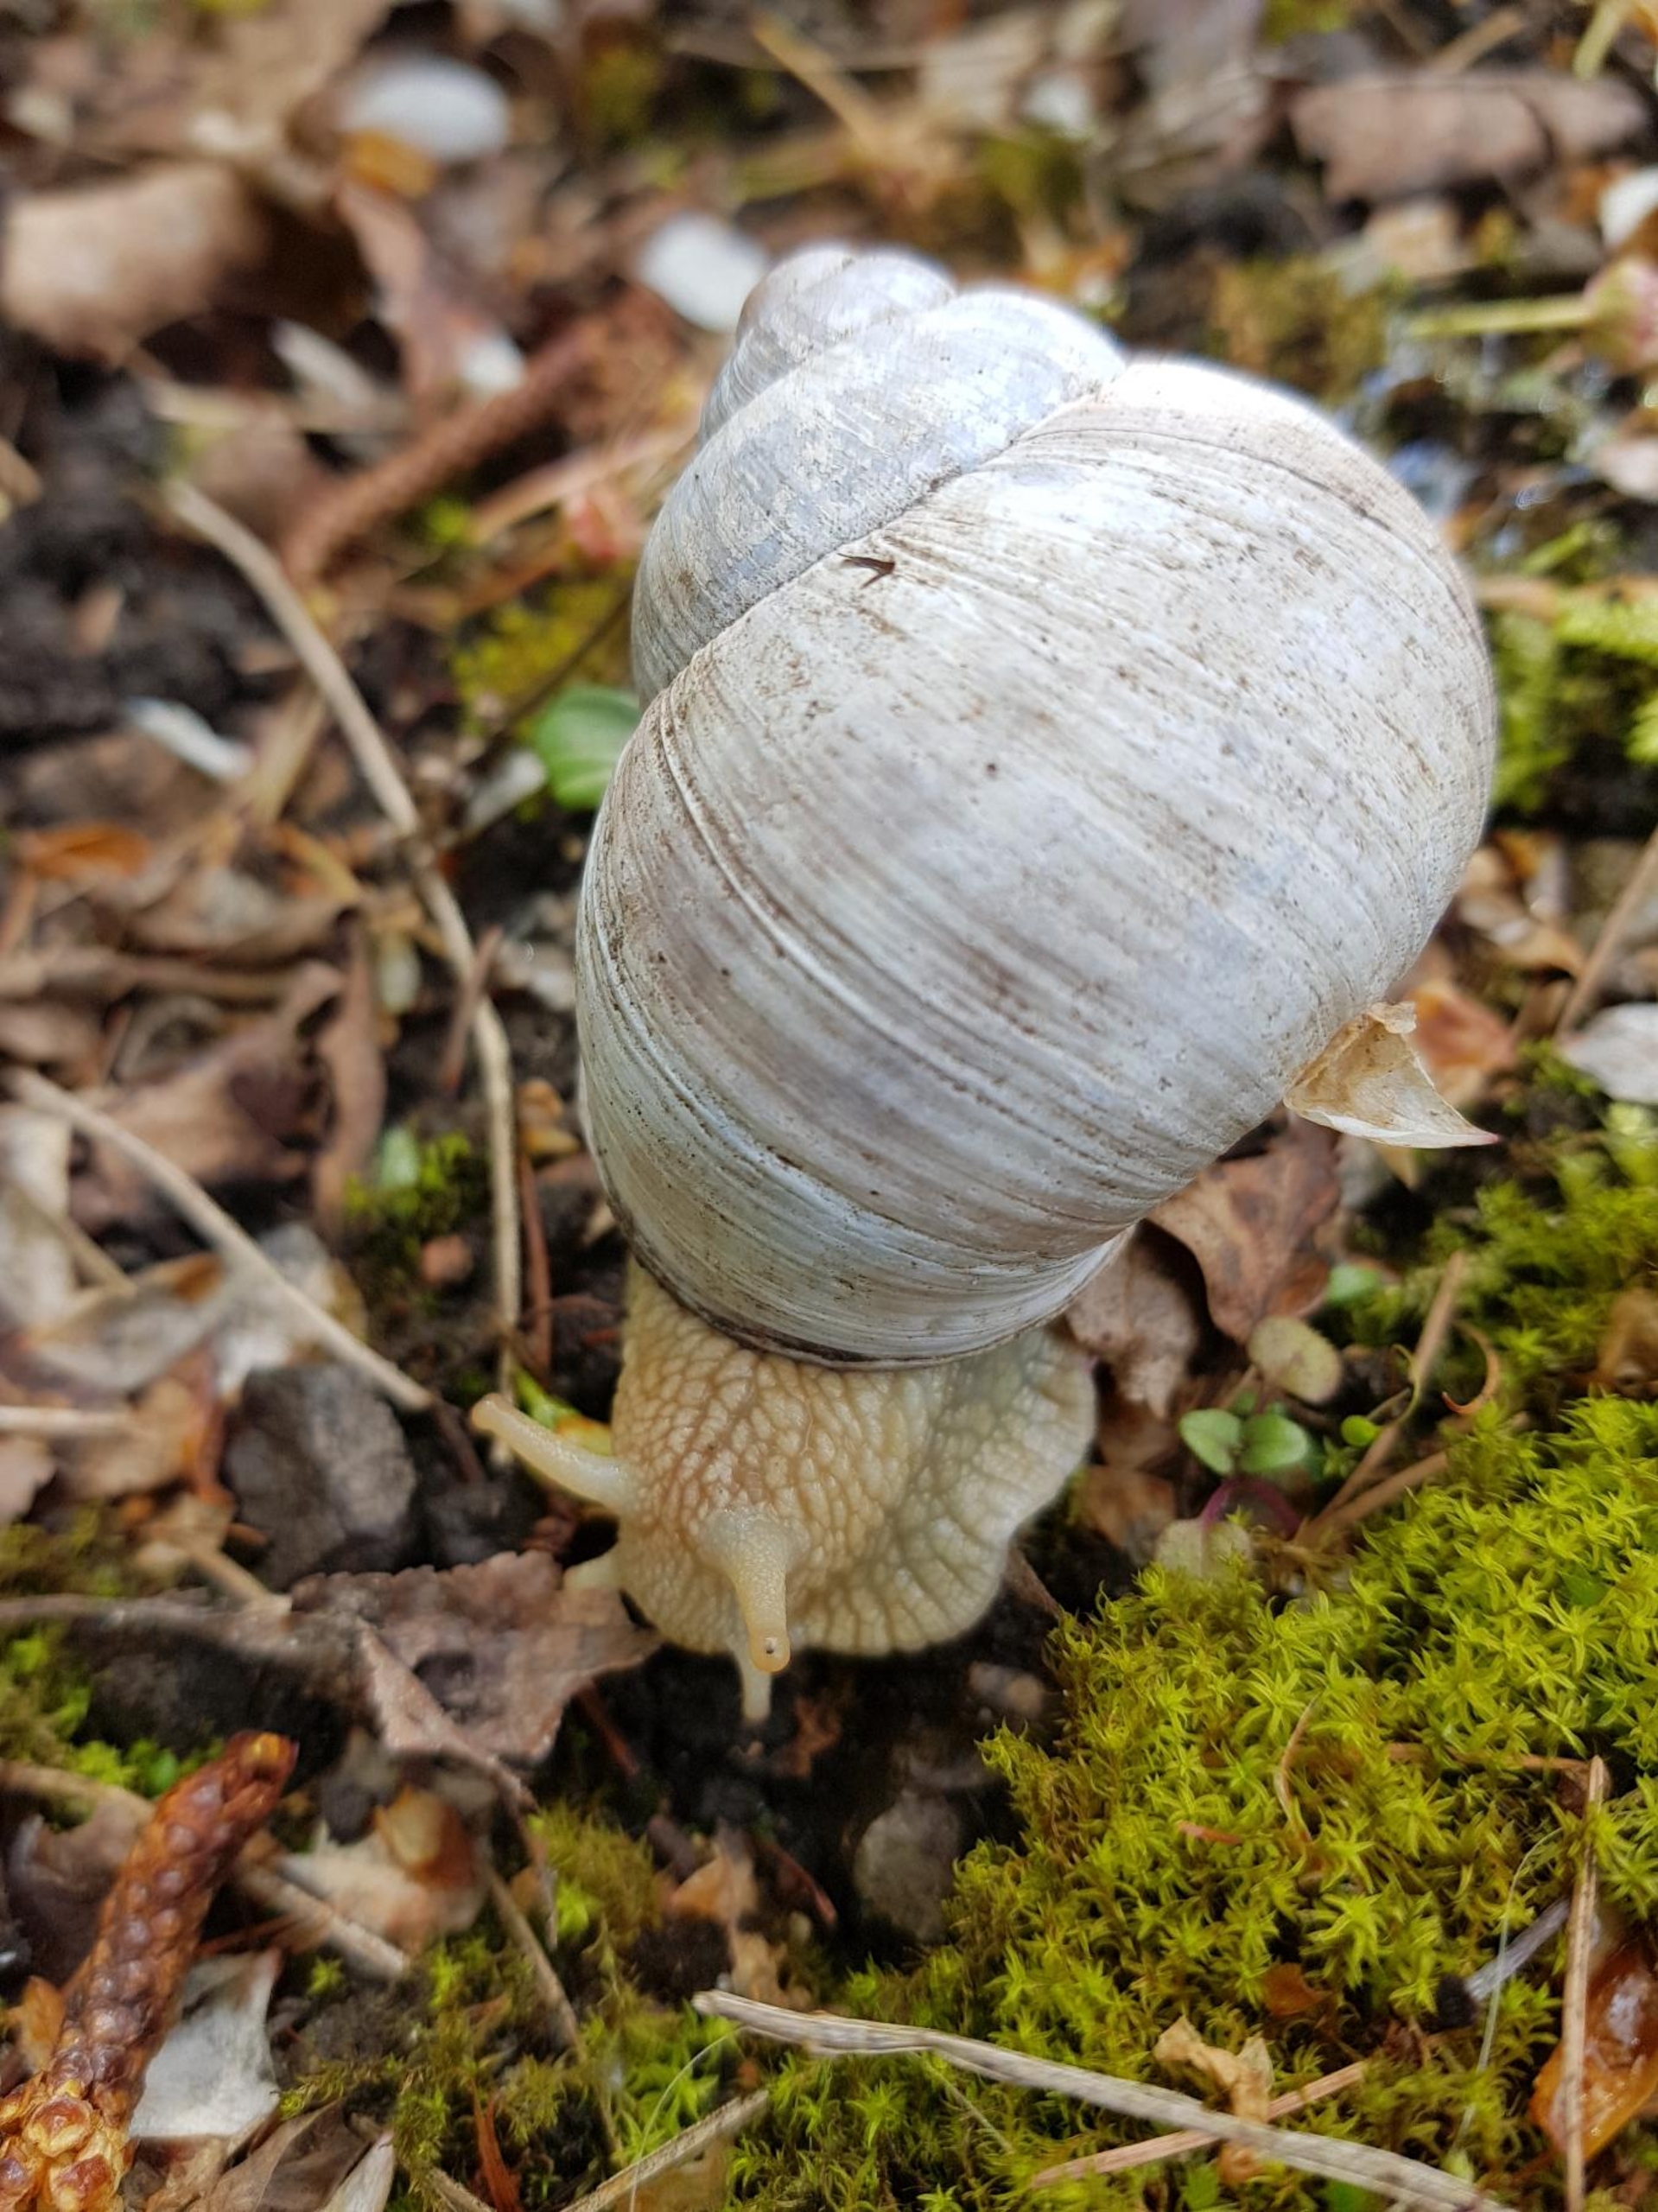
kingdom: Animalia
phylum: Mollusca
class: Gastropoda
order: Stylommatophora
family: Helicidae
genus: Helix
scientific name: Helix pomatia
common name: Vinbjergsnegl
